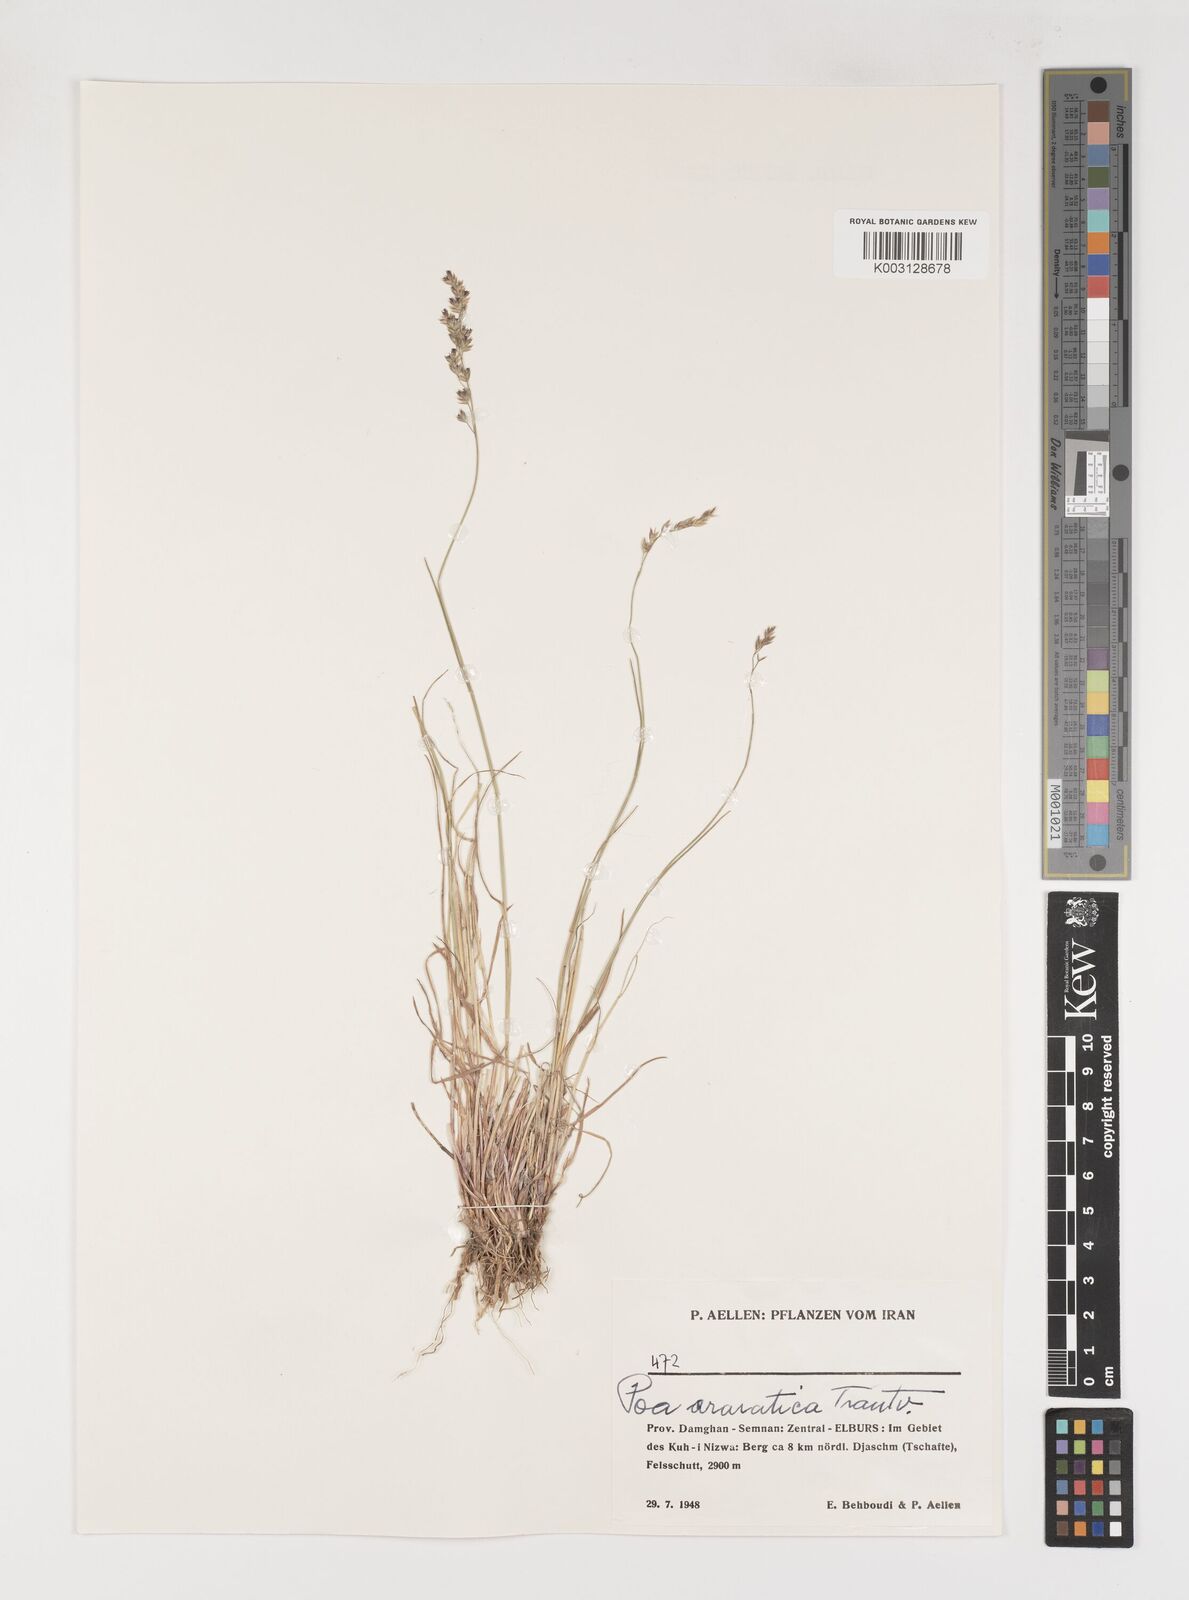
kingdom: Plantae
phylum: Tracheophyta
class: Liliopsida
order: Poales
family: Poaceae
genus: Poa
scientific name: Poa araratica
